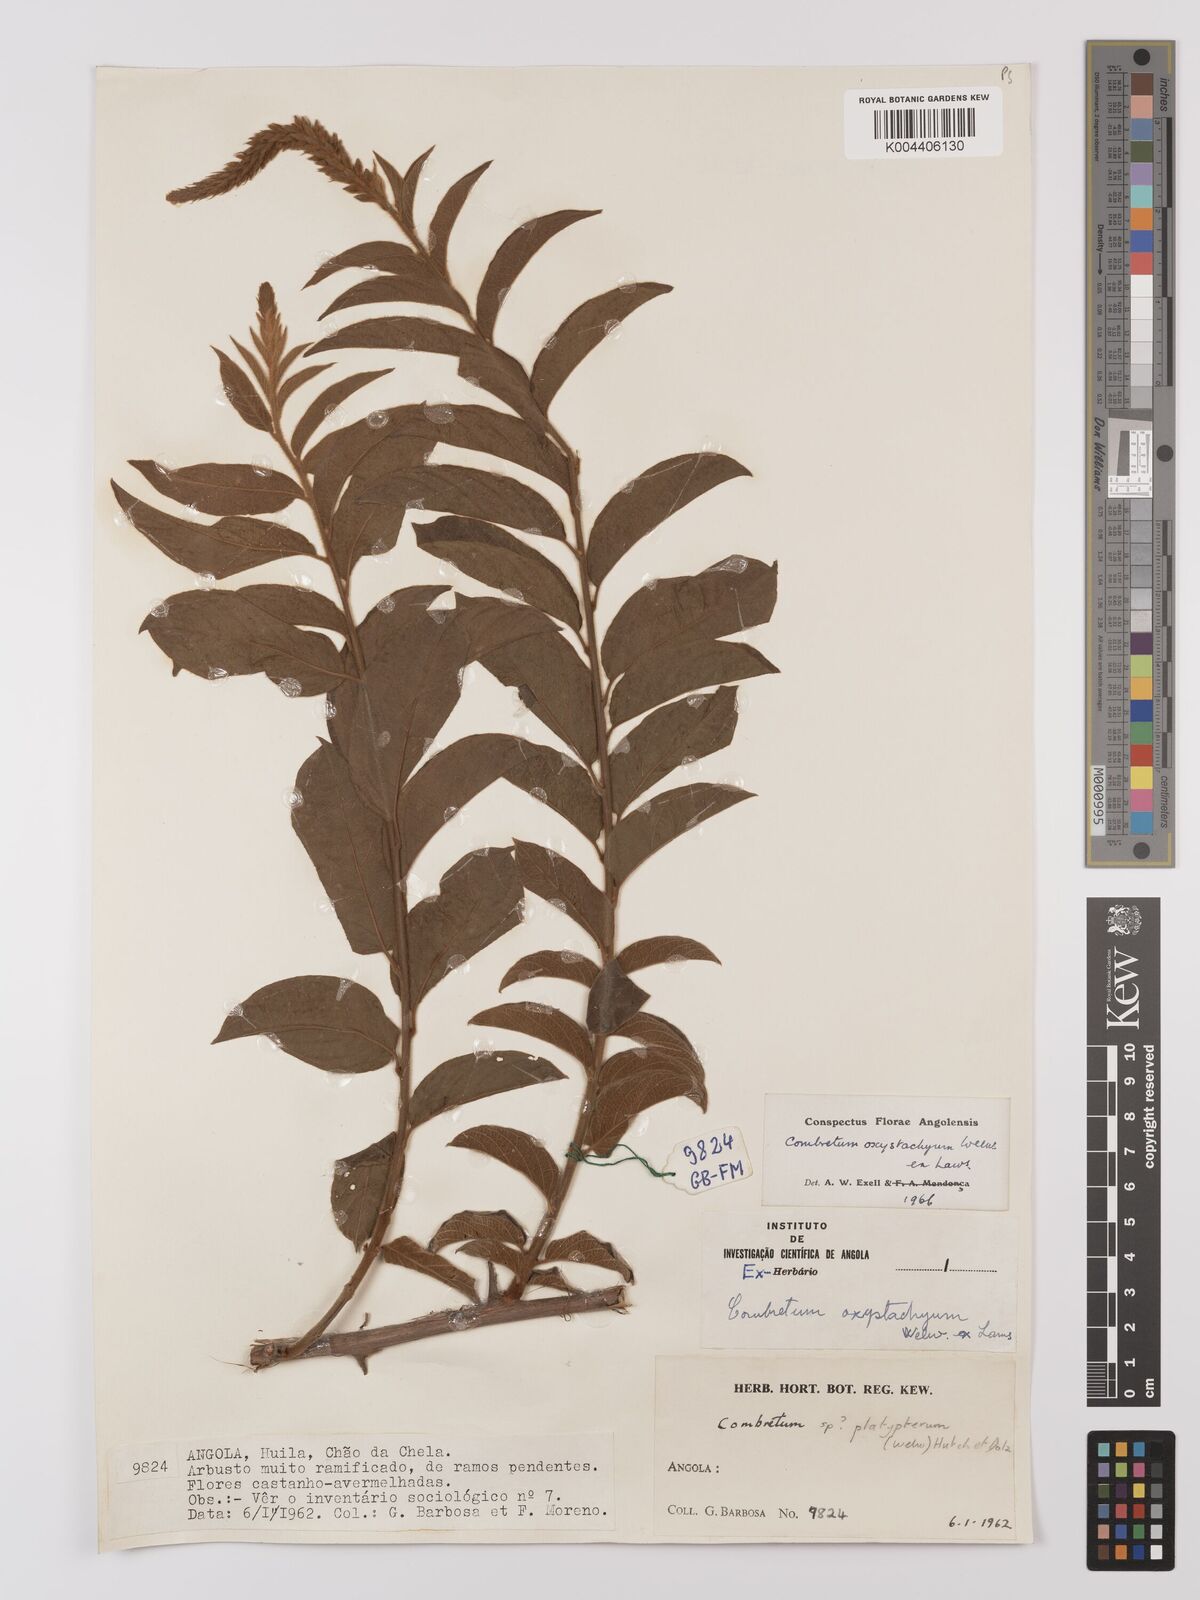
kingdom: Plantae
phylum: Tracheophyta
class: Magnoliopsida
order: Myrtales
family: Combretaceae
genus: Combretum
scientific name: Combretum oxystachyum
